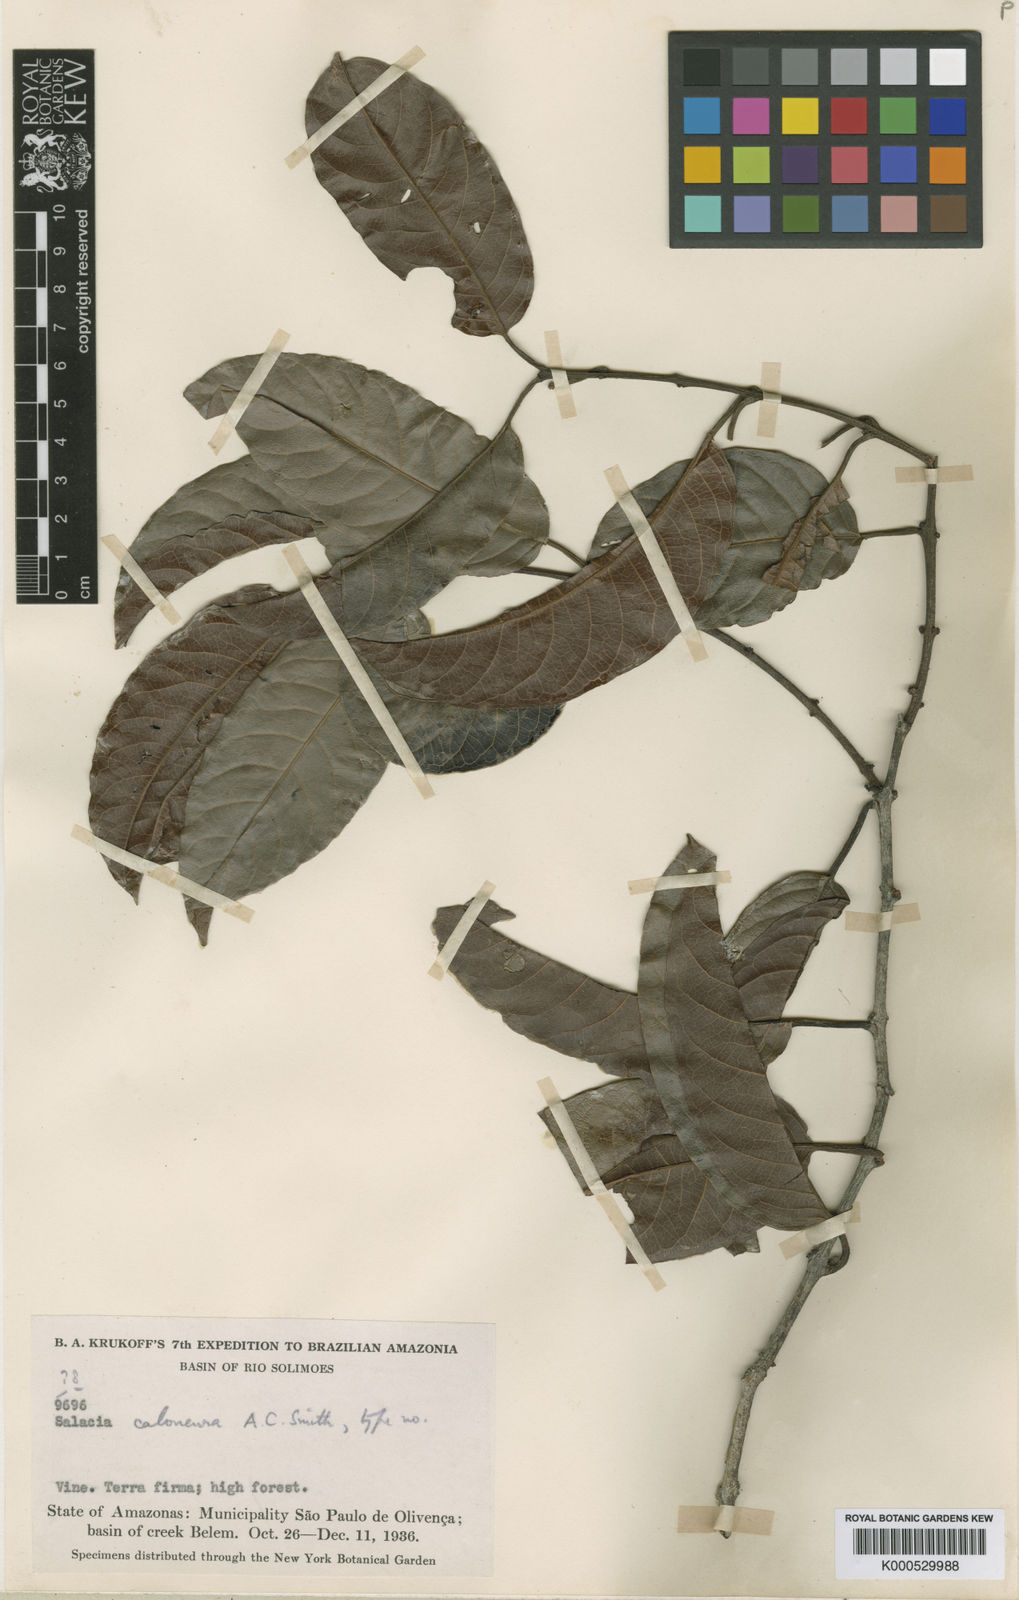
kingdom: Plantae
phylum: Tracheophyta
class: Magnoliopsida
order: Celastrales
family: Celastraceae
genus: Salacia
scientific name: Salacia caloneura
